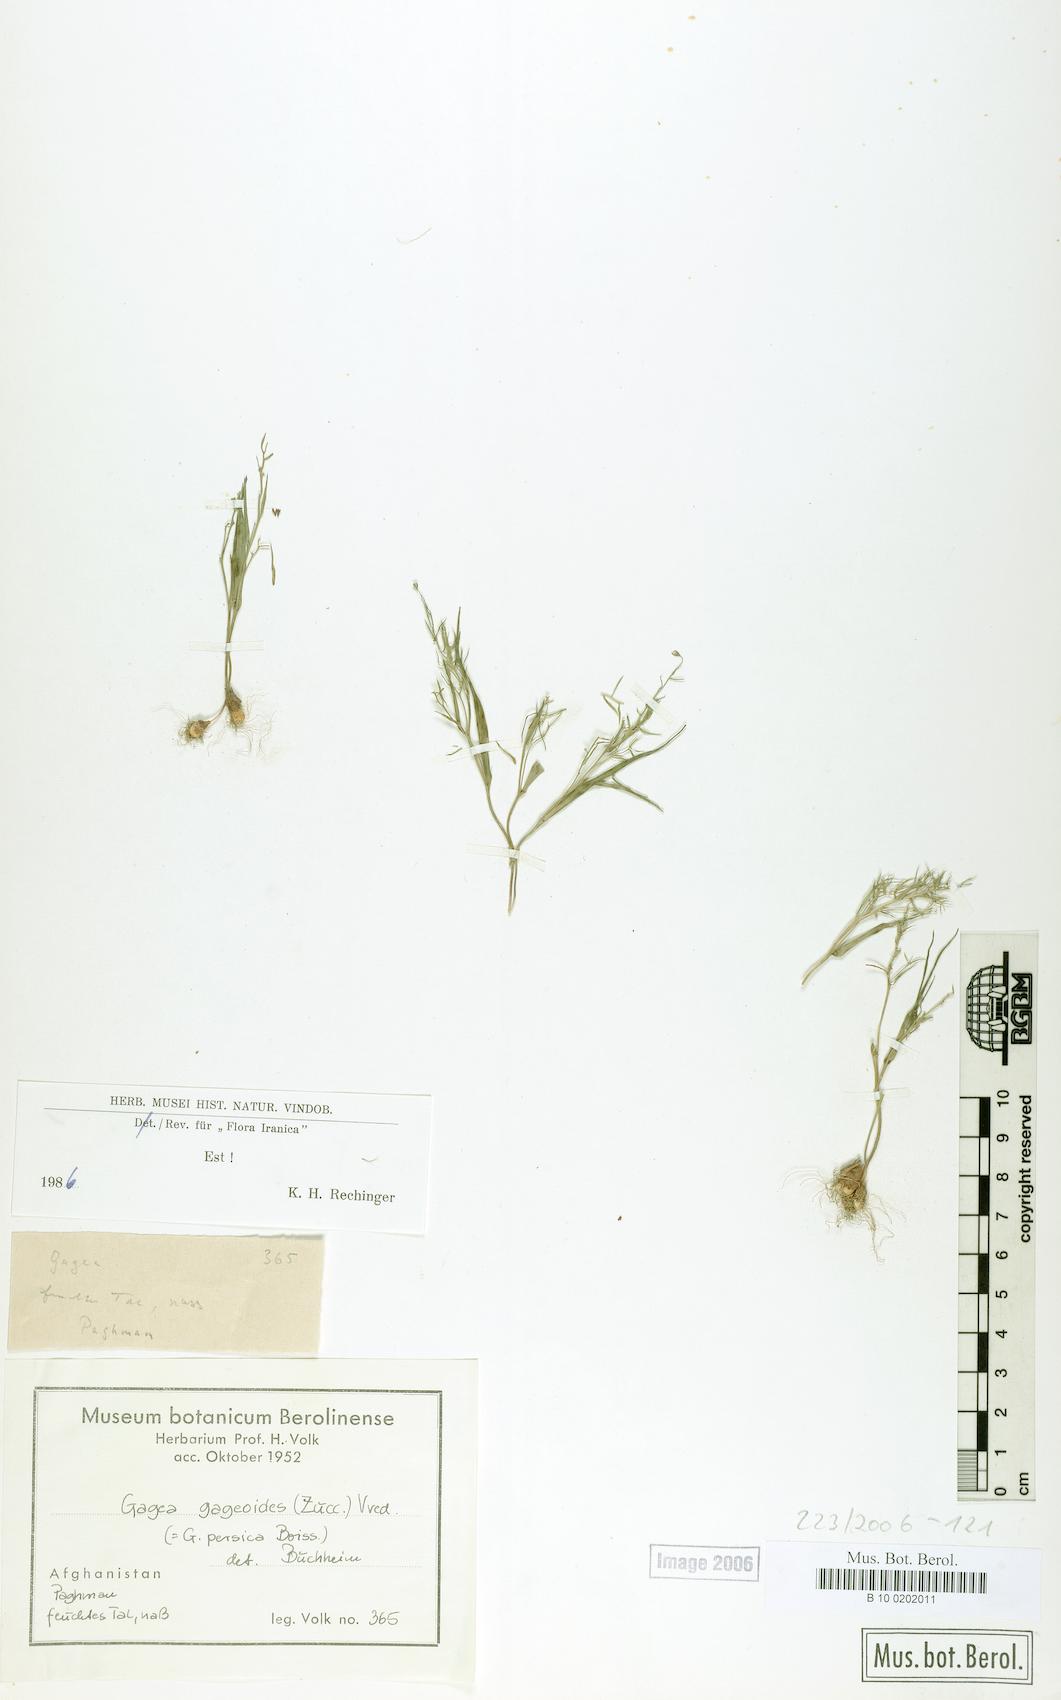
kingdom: Plantae
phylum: Tracheophyta
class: Liliopsida
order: Liliales
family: Liliaceae
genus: Gagea
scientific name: Gagea gageoides
